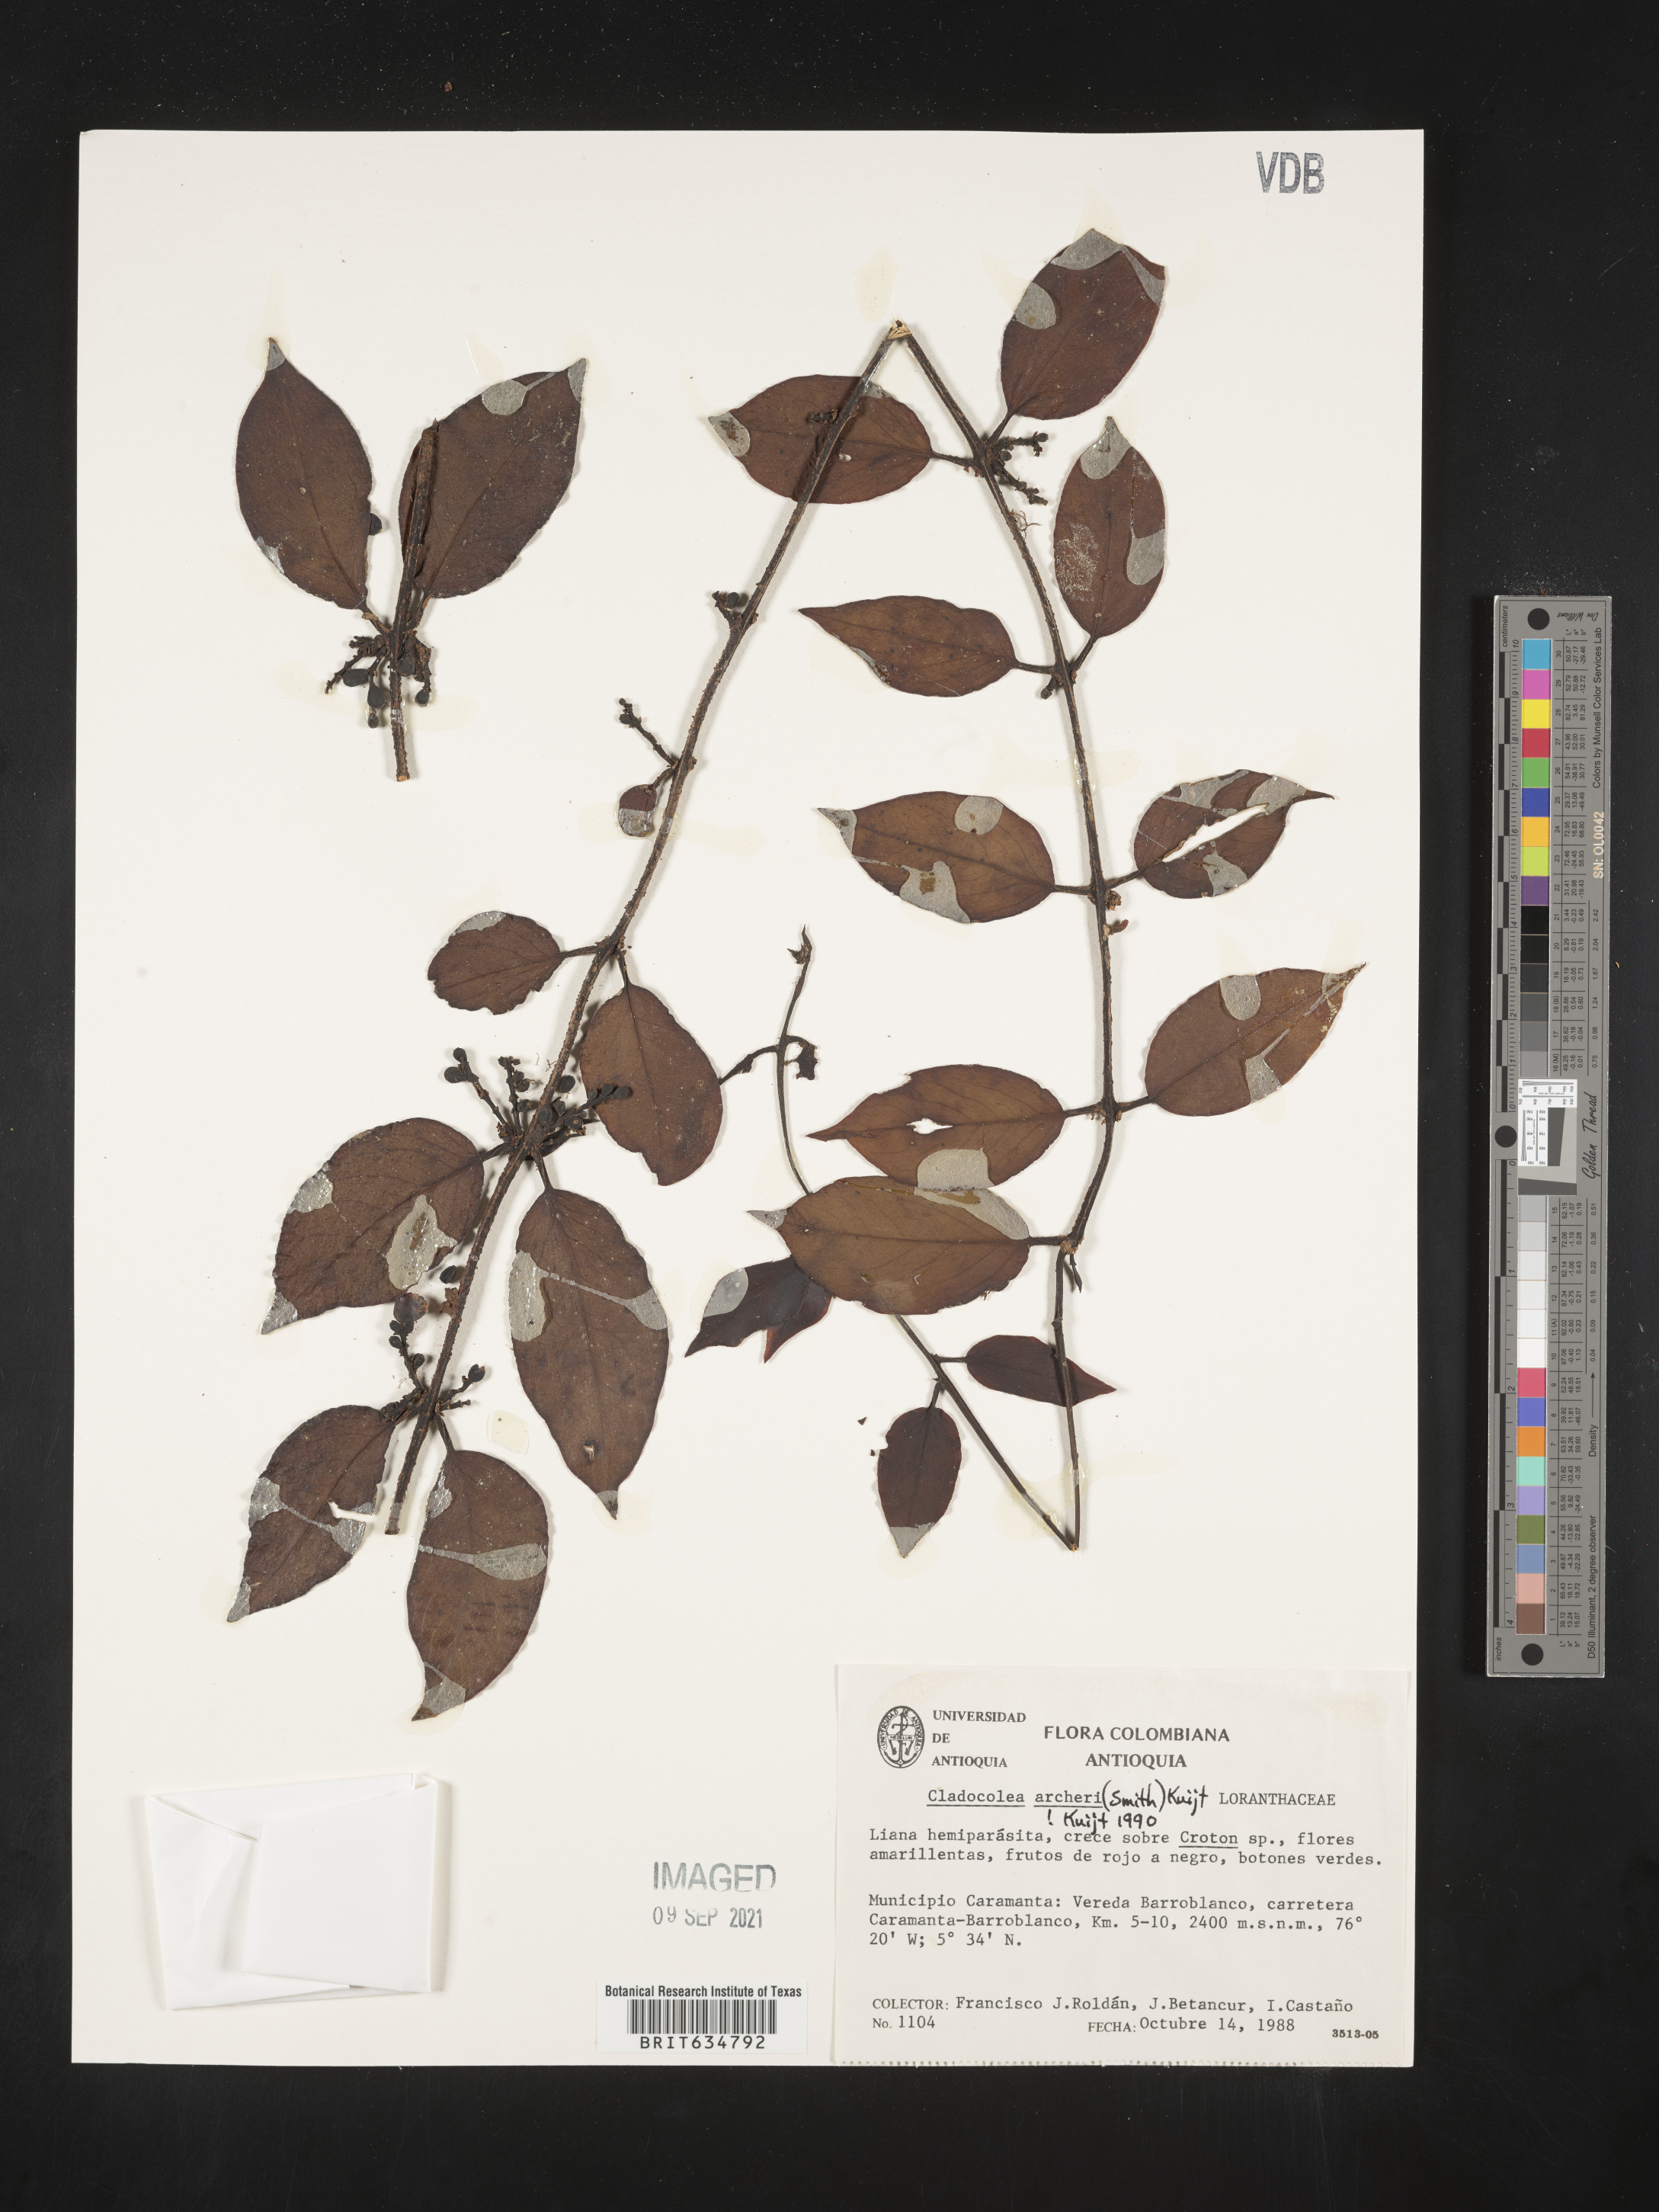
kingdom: Plantae
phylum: Tracheophyta
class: Magnoliopsida
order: Santalales
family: Loranthaceae
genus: Cladocolea
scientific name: Cladocolea
